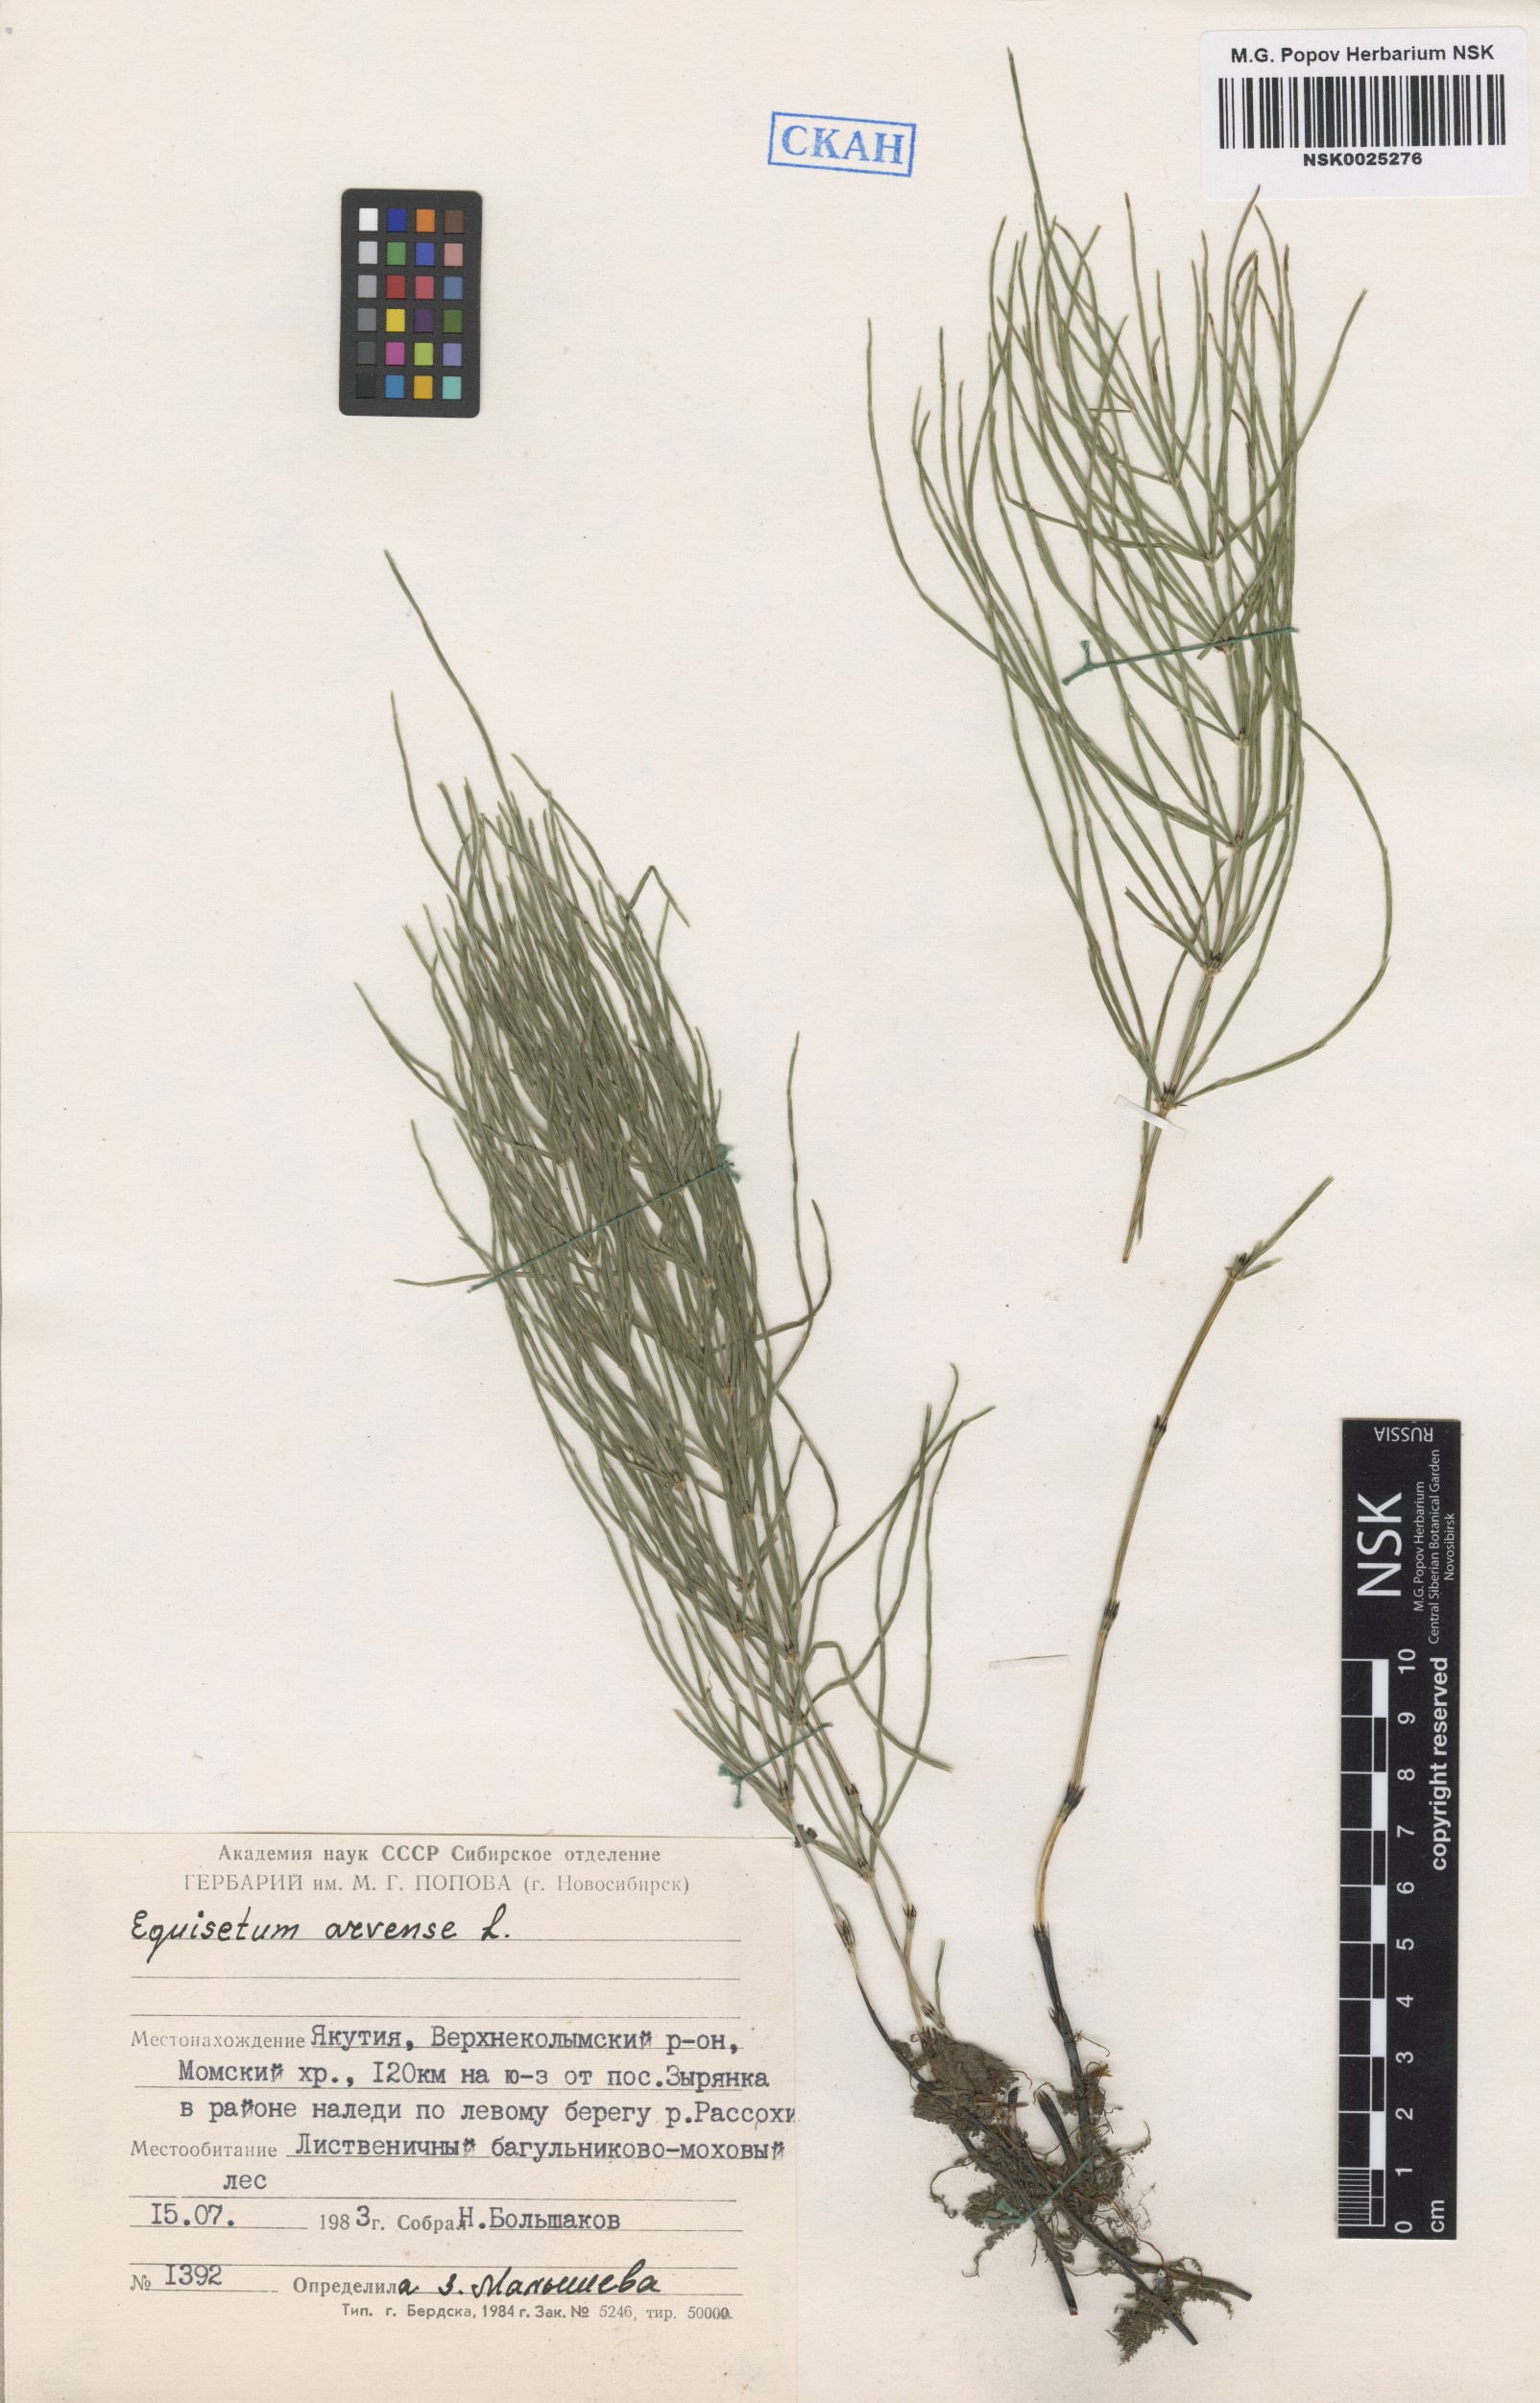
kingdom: Plantae
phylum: Tracheophyta
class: Polypodiopsida
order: Equisetales
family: Equisetaceae
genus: Equisetum
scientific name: Equisetum arvense
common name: Field horsetail
